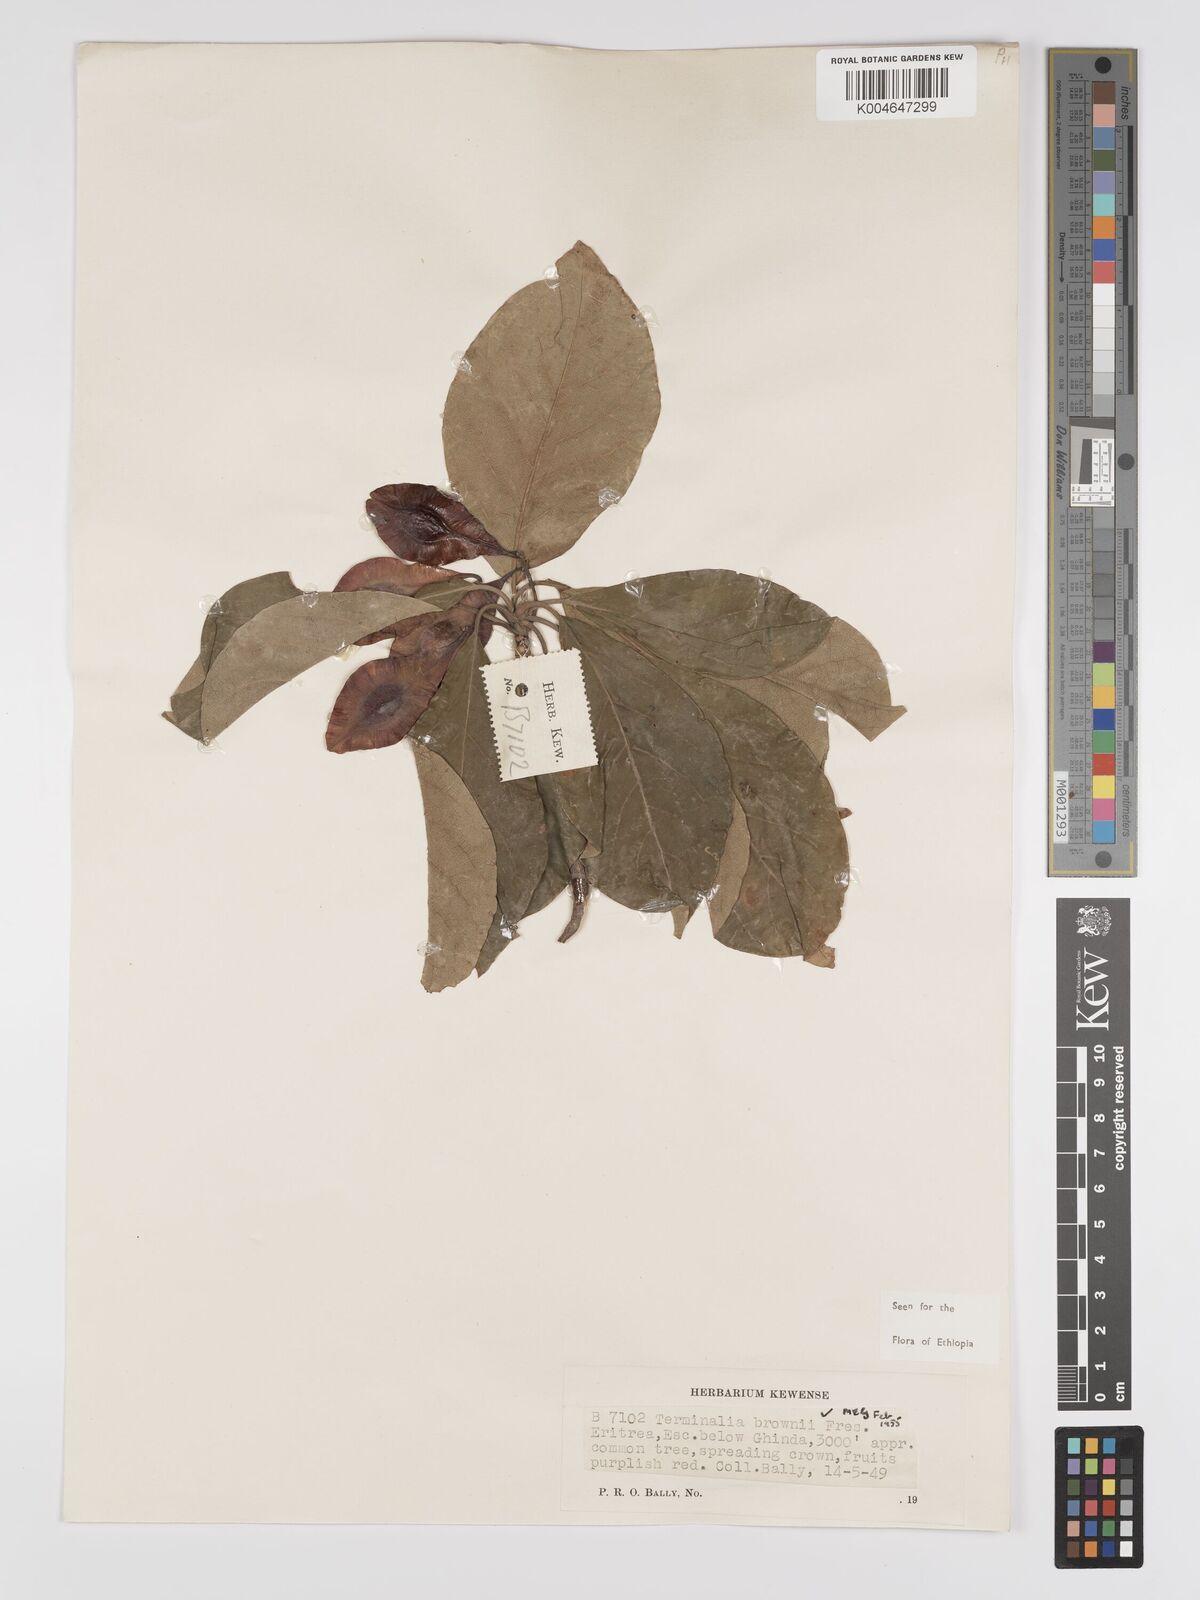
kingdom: Plantae
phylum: Tracheophyta
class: Magnoliopsida
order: Myrtales
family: Combretaceae
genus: Terminalia
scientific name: Terminalia brownii
